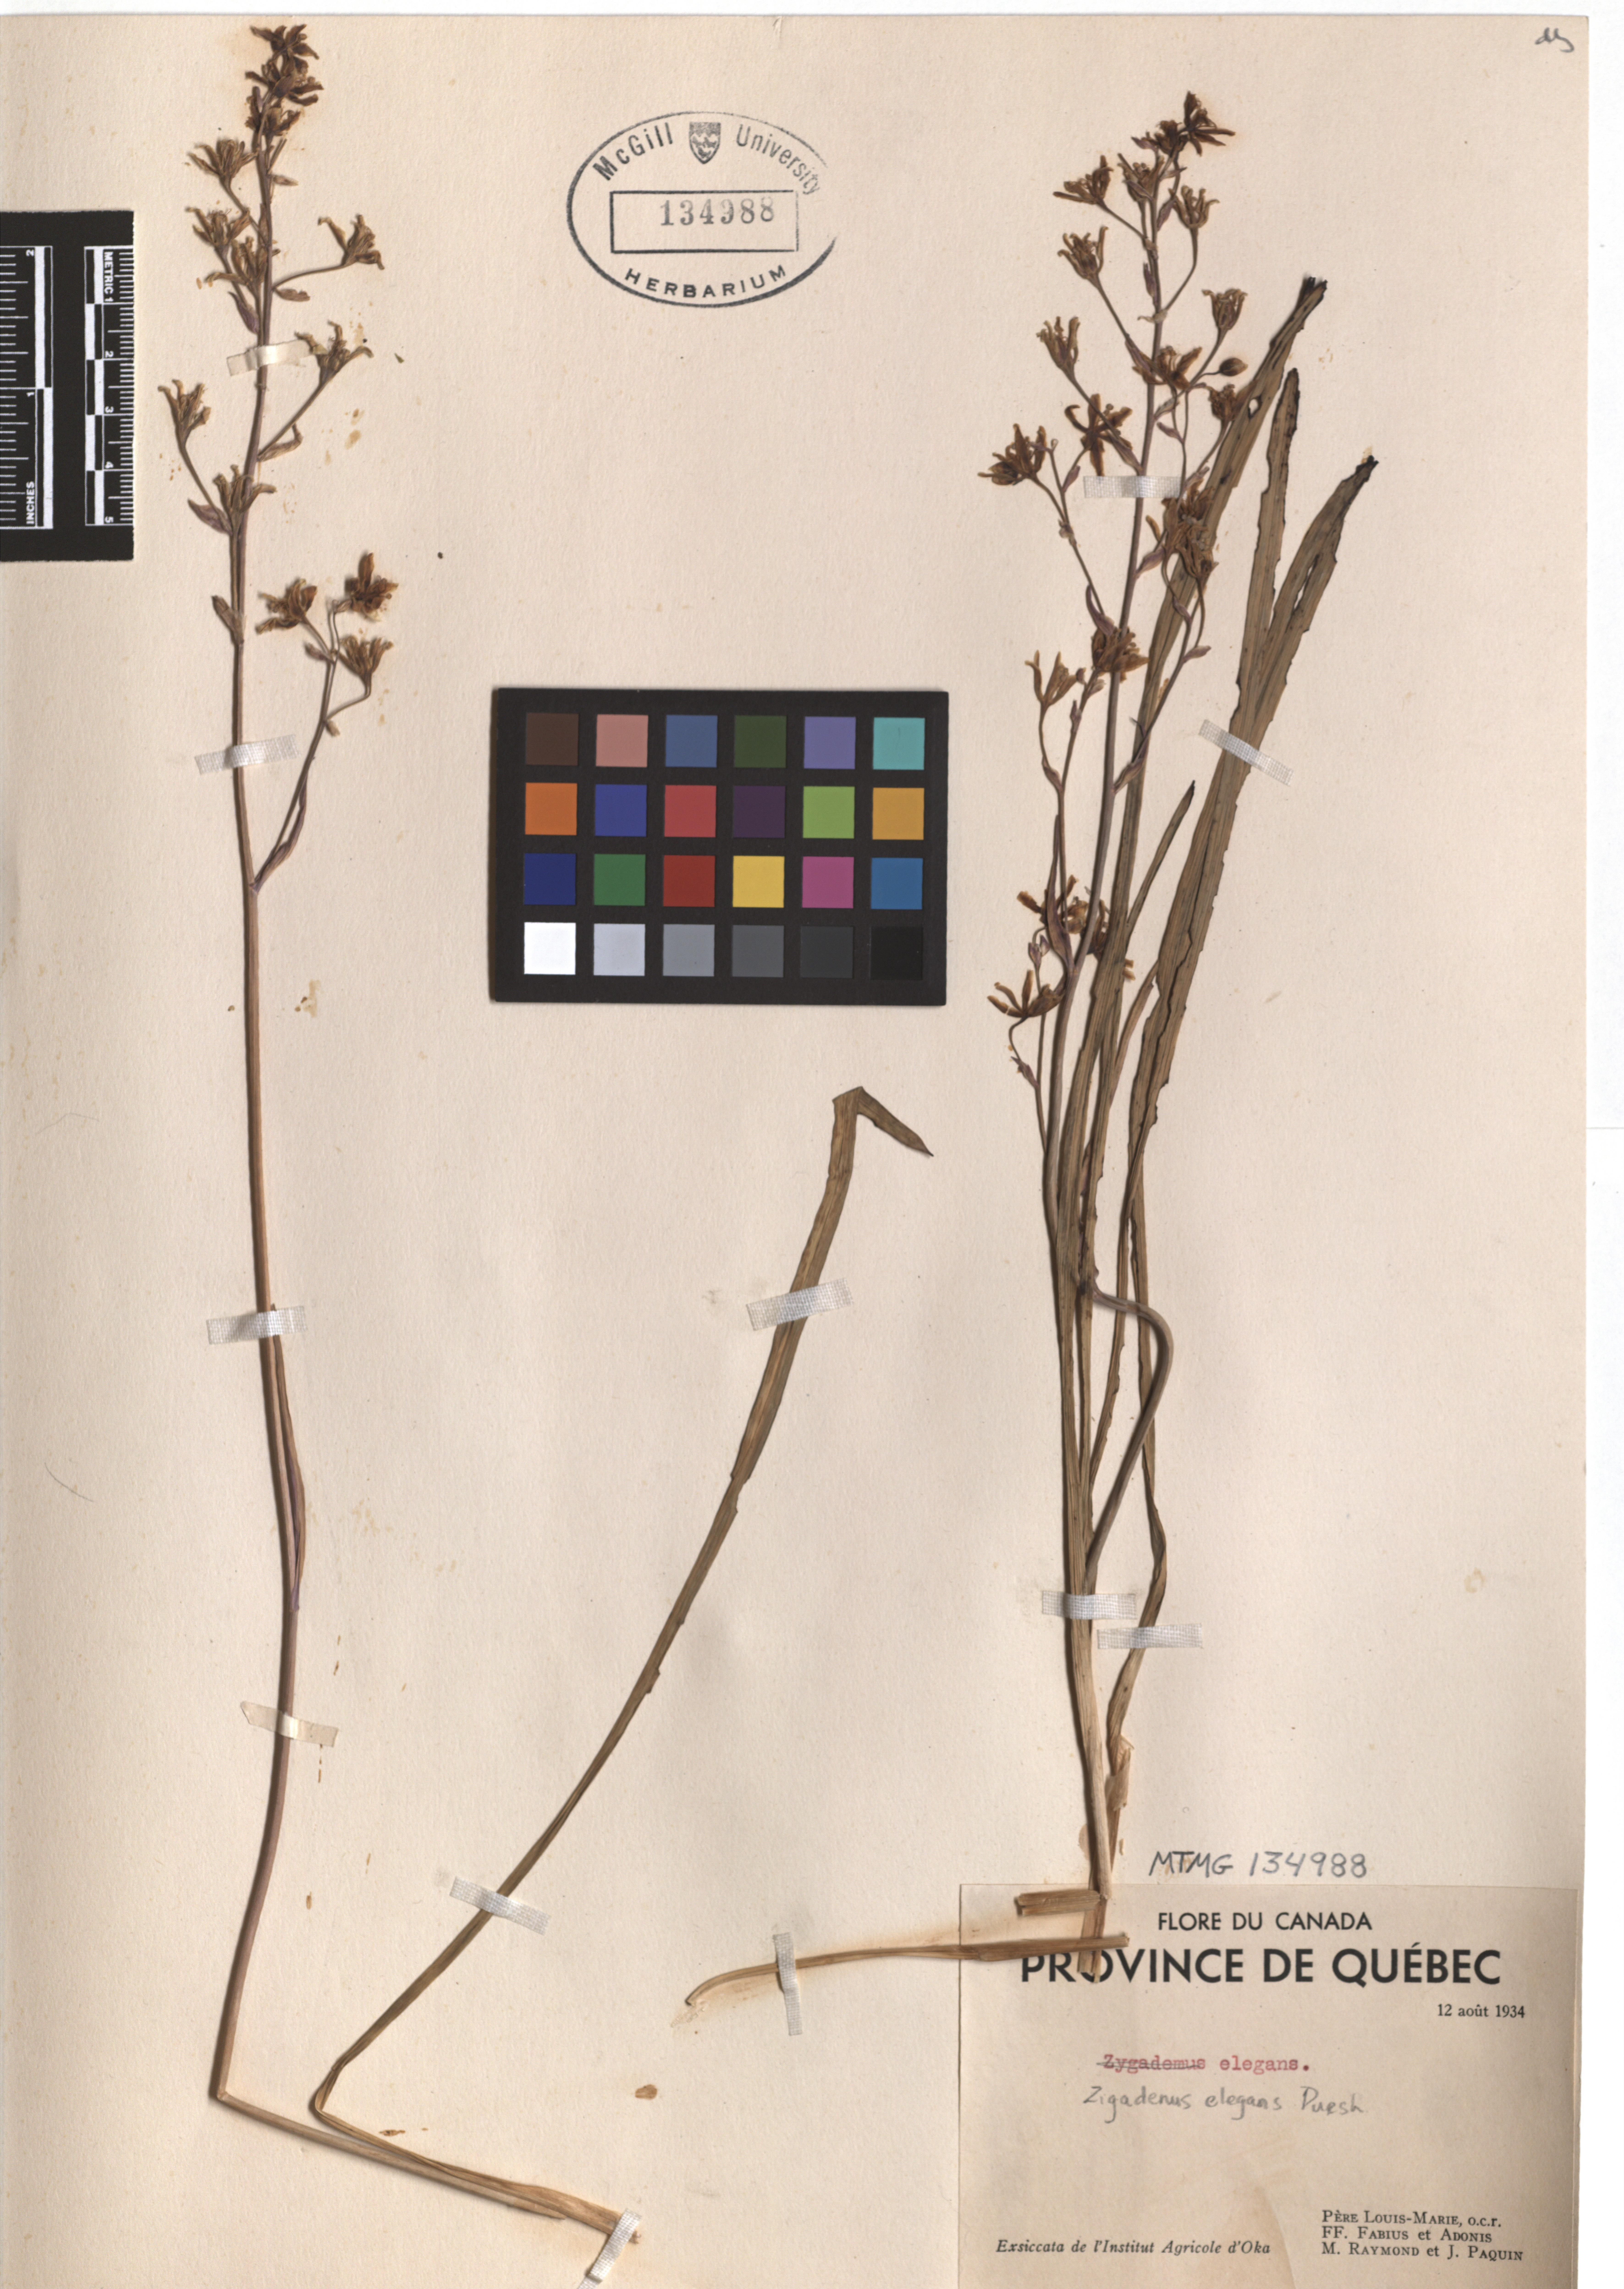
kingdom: Plantae
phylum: Tracheophyta
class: Liliopsida
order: Liliales
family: Melanthiaceae
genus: Anticlea
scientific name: Anticlea elegans
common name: Mountain death camas
